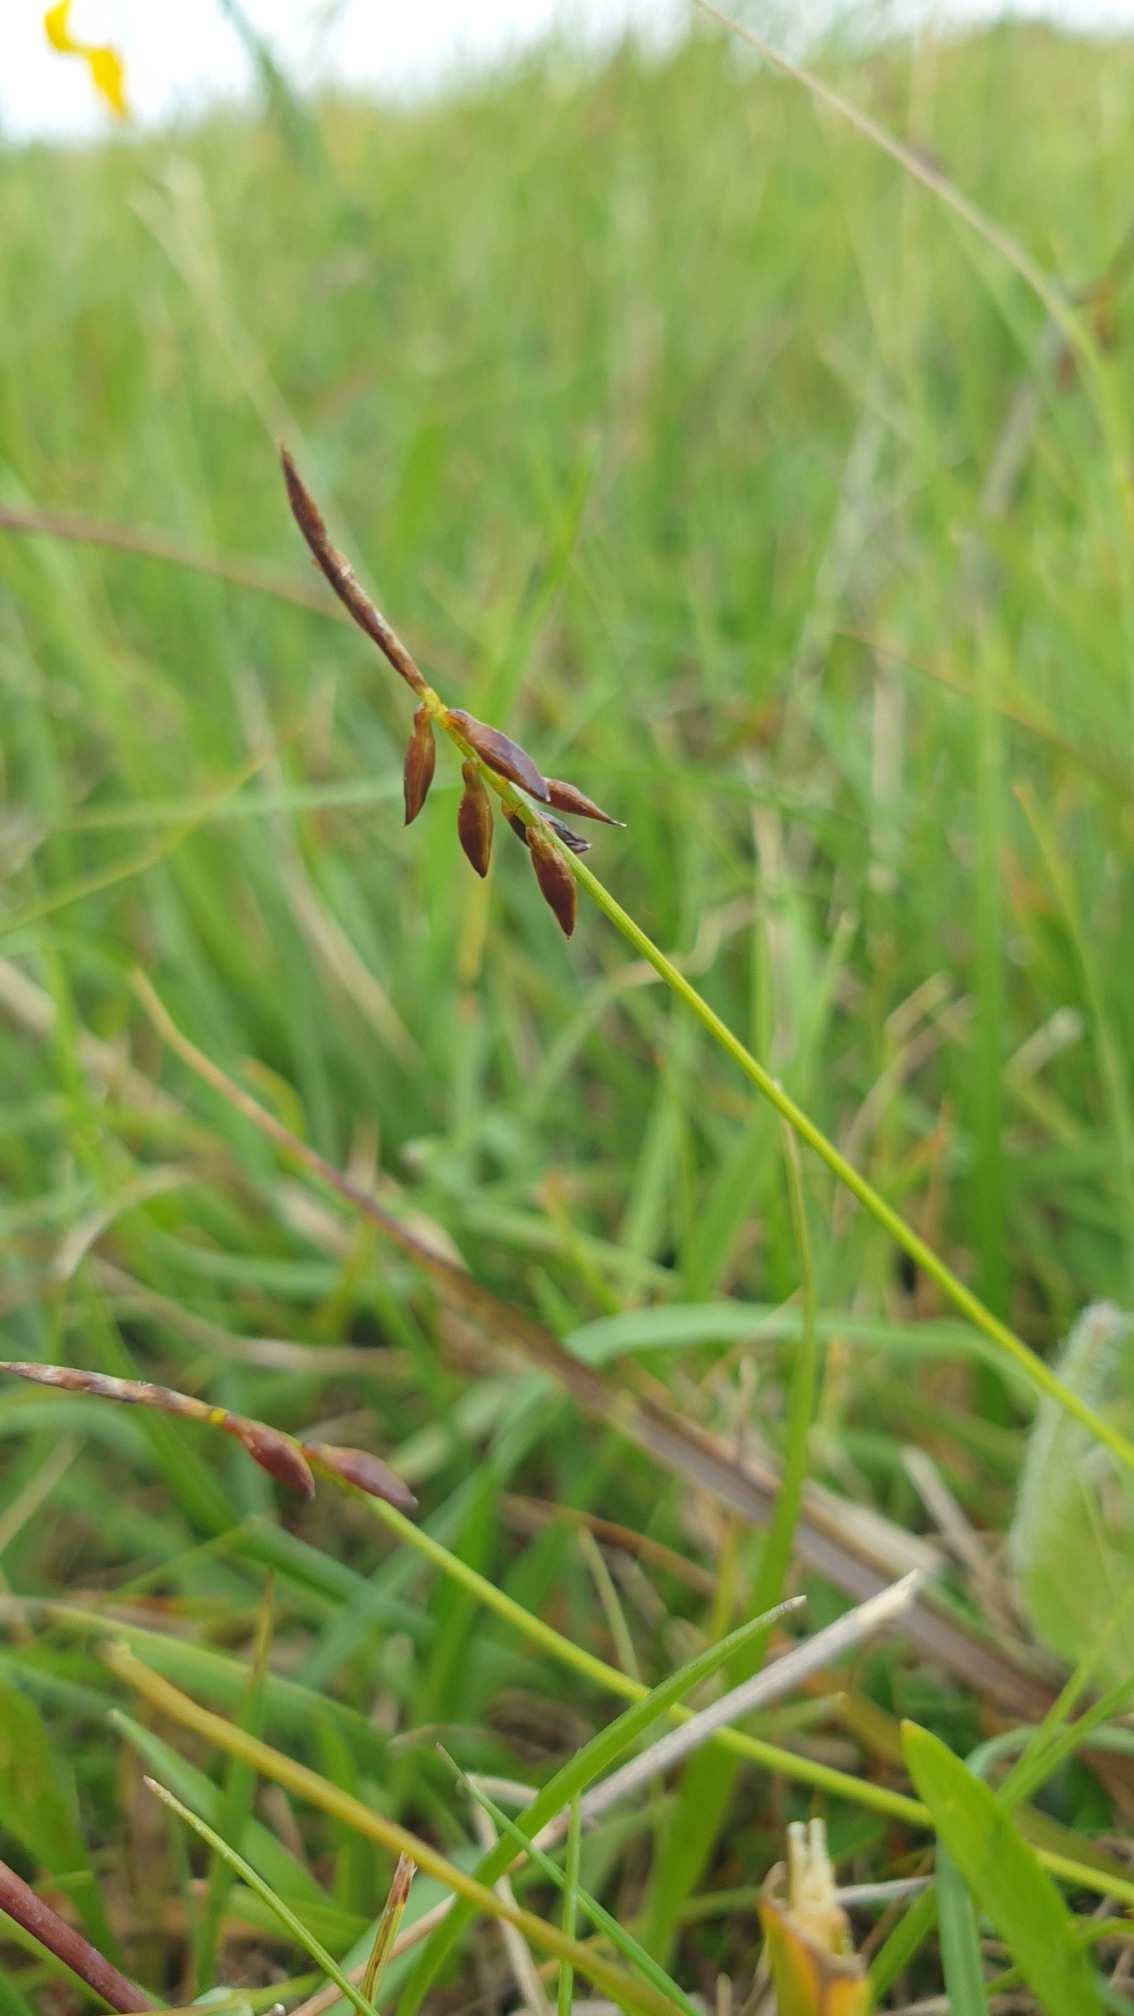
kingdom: Plantae
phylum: Tracheophyta
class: Liliopsida
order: Poales
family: Cyperaceae
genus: Carex
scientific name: Carex pulicaris
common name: Loppe-star
